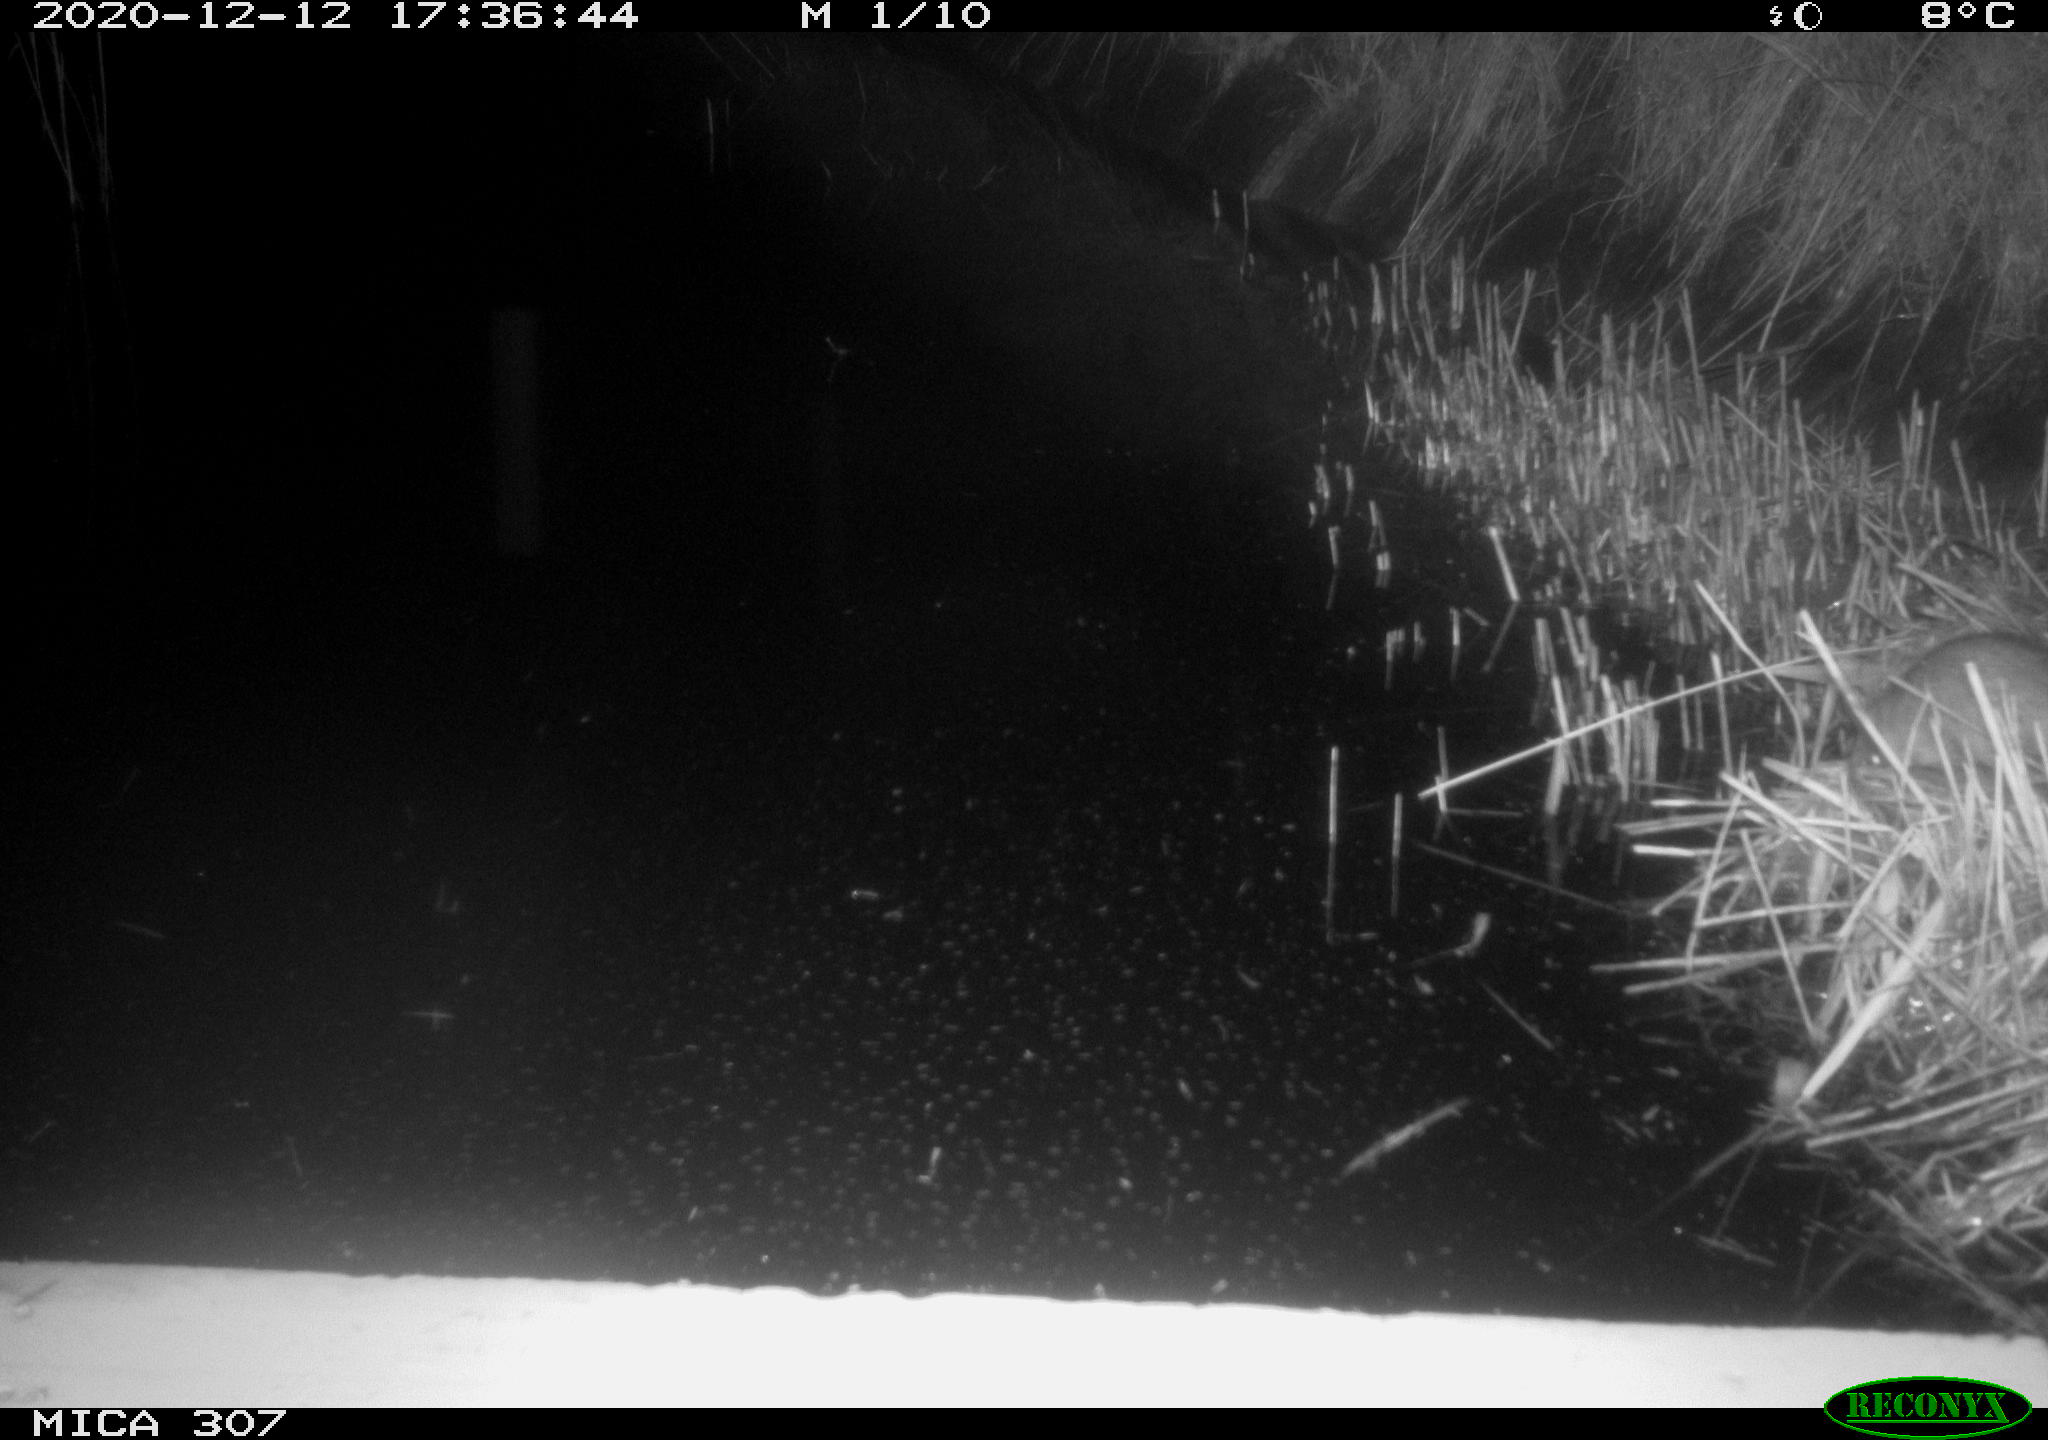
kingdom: Animalia
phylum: Chordata
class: Mammalia
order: Rodentia
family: Muridae
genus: Rattus
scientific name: Rattus norvegicus
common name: Brown rat
